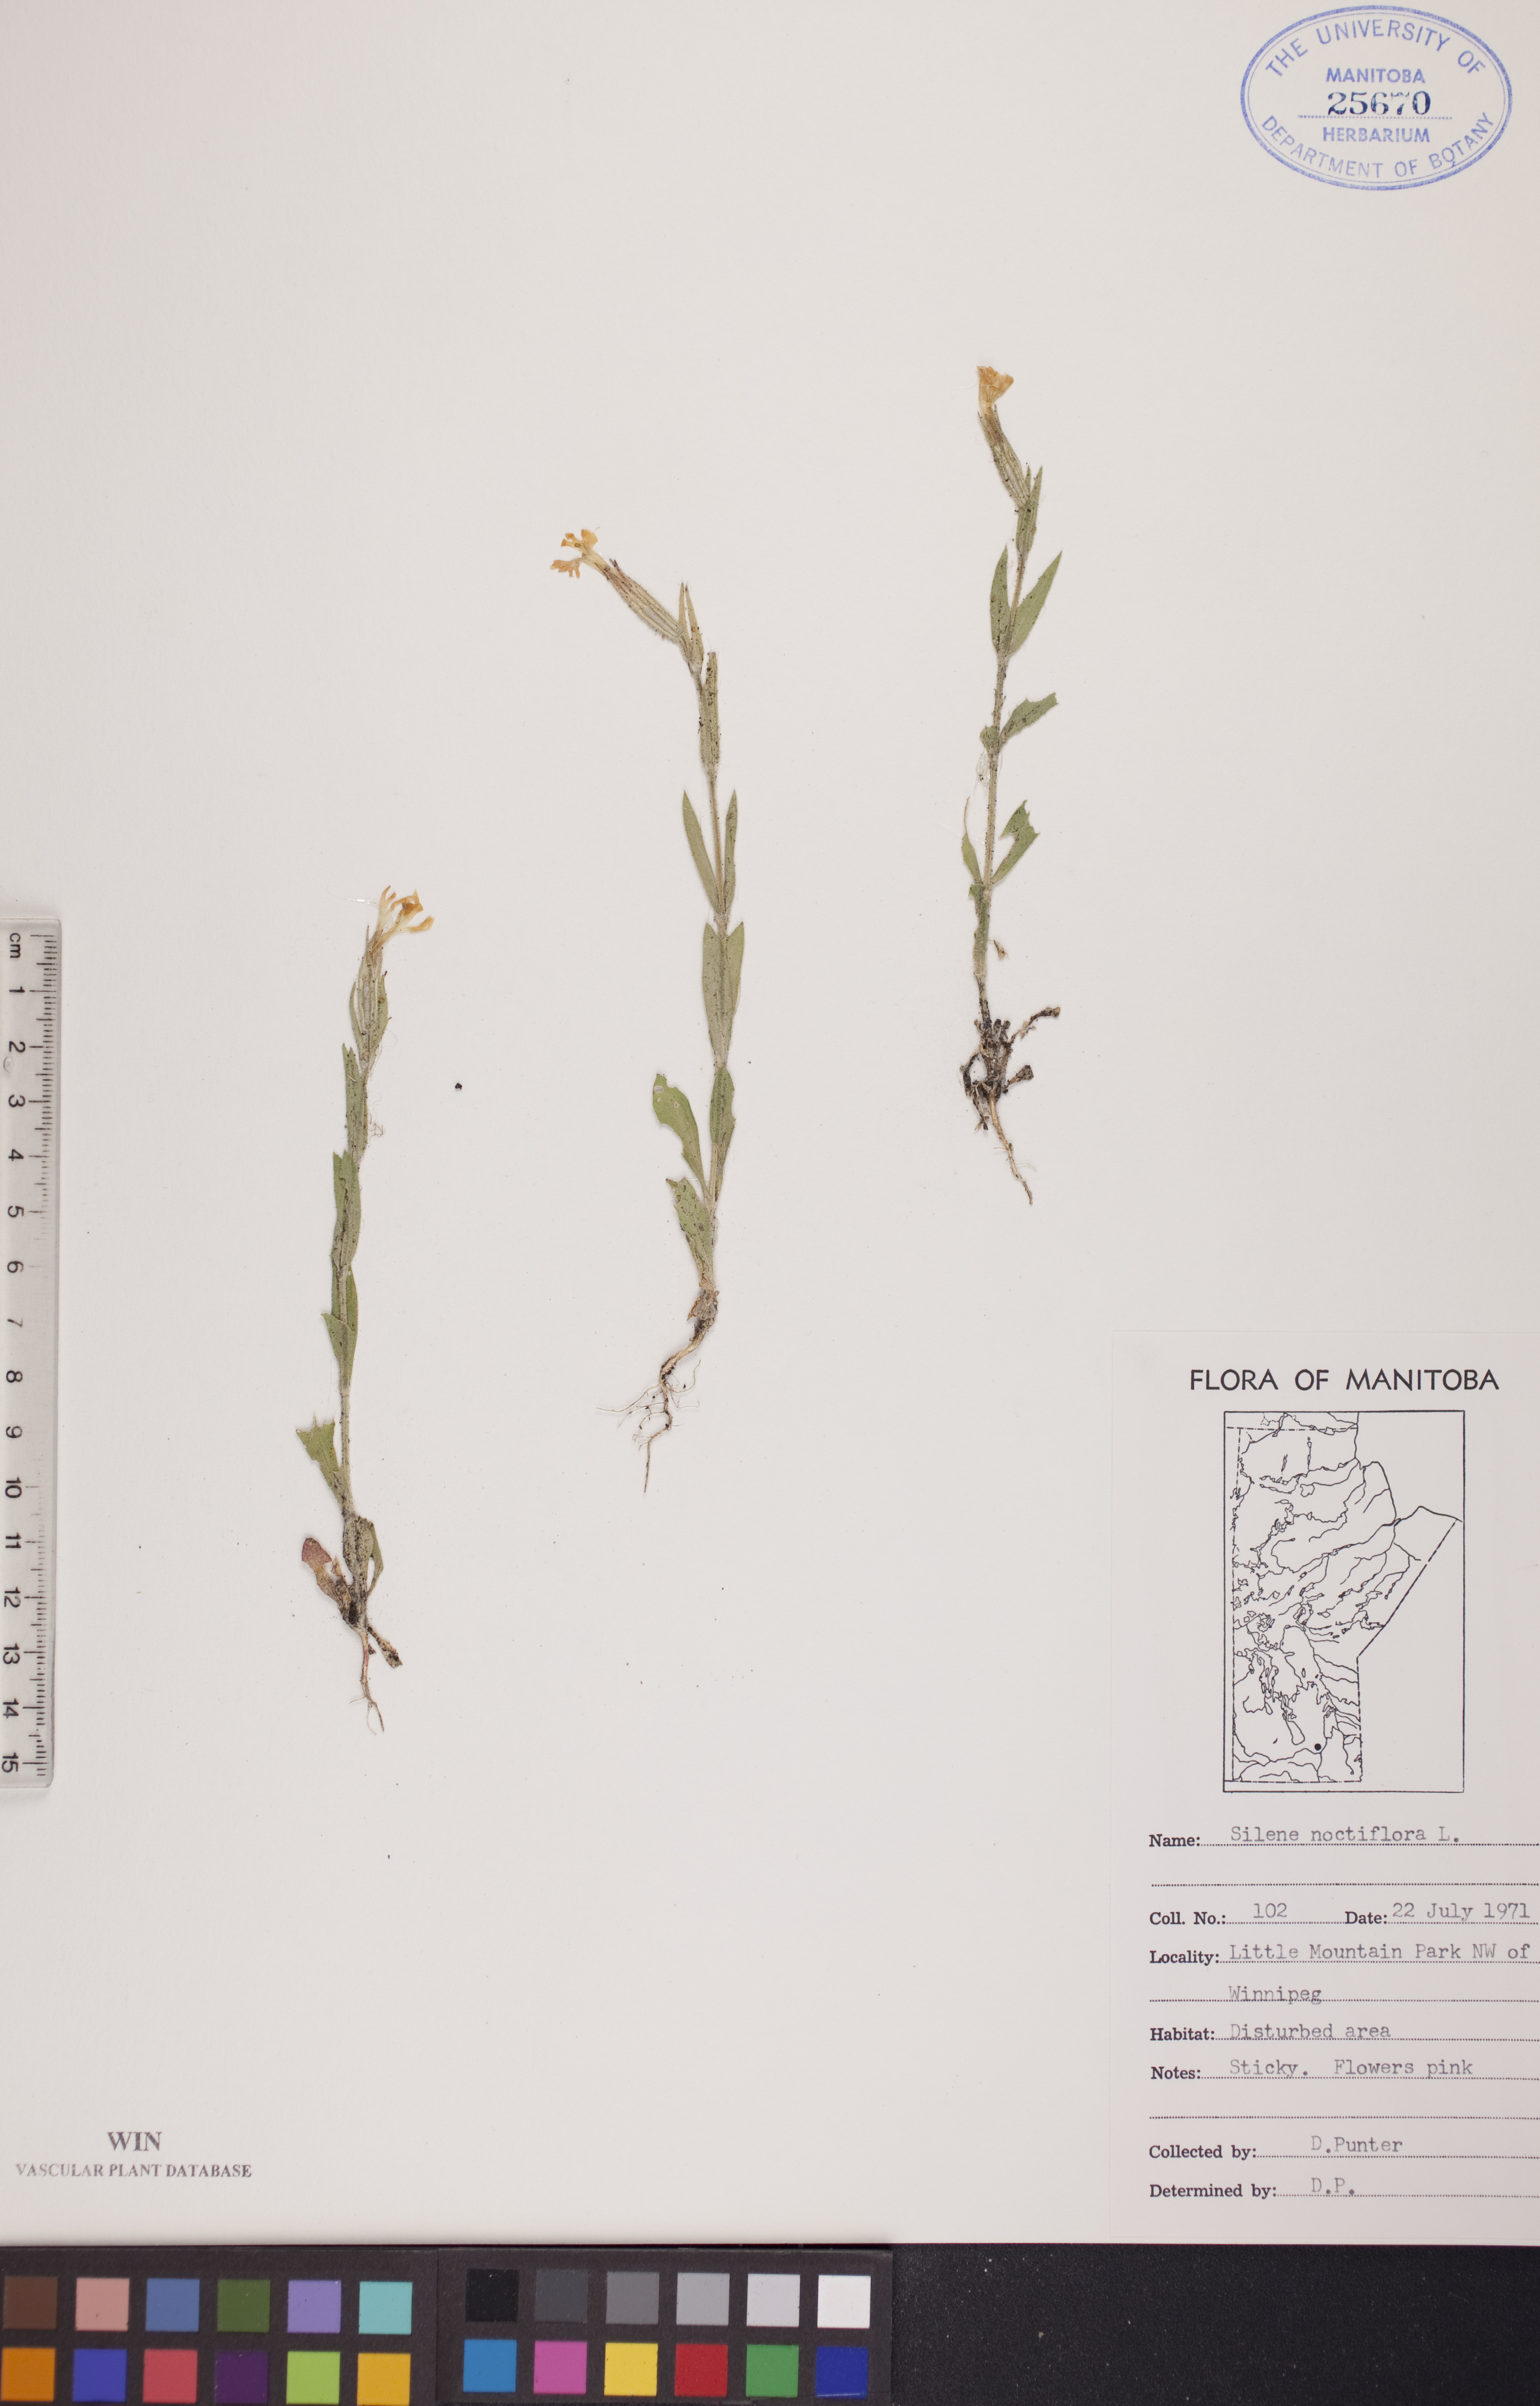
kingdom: Plantae
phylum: Tracheophyta
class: Magnoliopsida
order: Caryophyllales
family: Caryophyllaceae
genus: Silene
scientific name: Silene noctiflora
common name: Night-flowering catchfly
